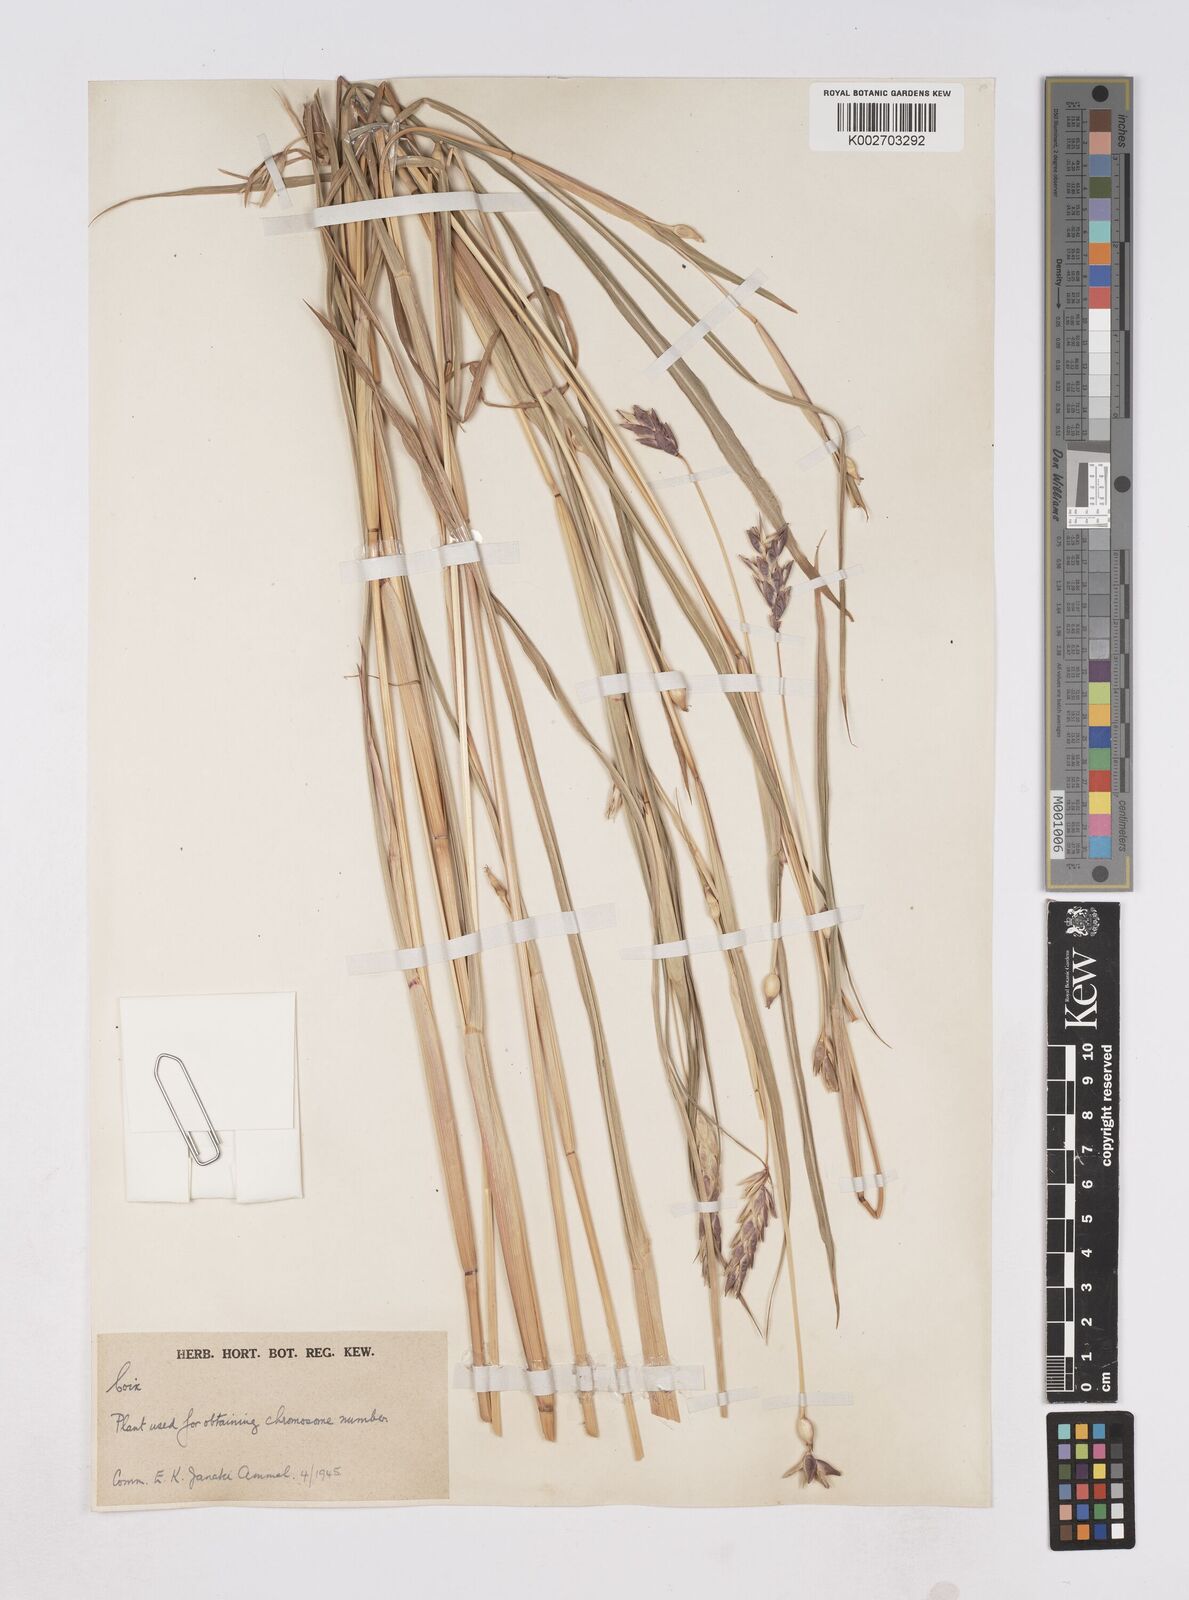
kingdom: Plantae
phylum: Tracheophyta
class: Liliopsida
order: Poales
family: Poaceae
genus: Coix
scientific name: Coix aquatica
